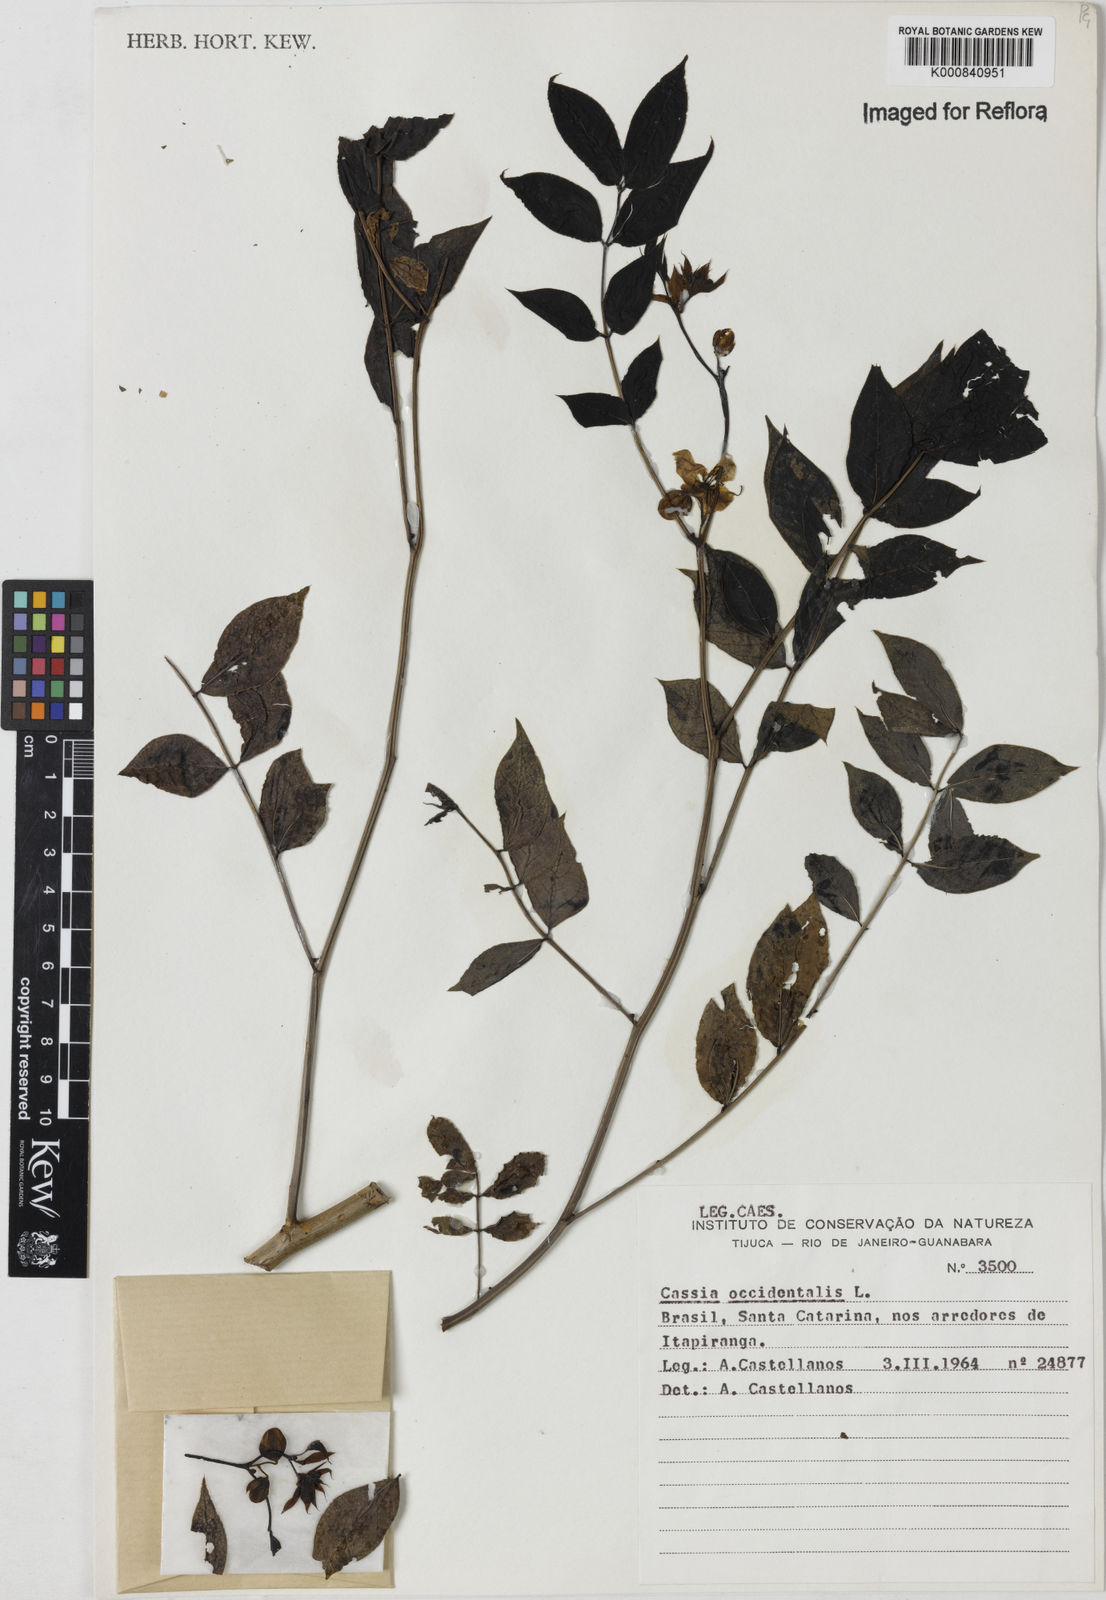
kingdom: Plantae
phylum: Tracheophyta
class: Magnoliopsida
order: Fabales
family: Fabaceae
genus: Senna
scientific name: Senna occidentalis
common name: Septicweed
